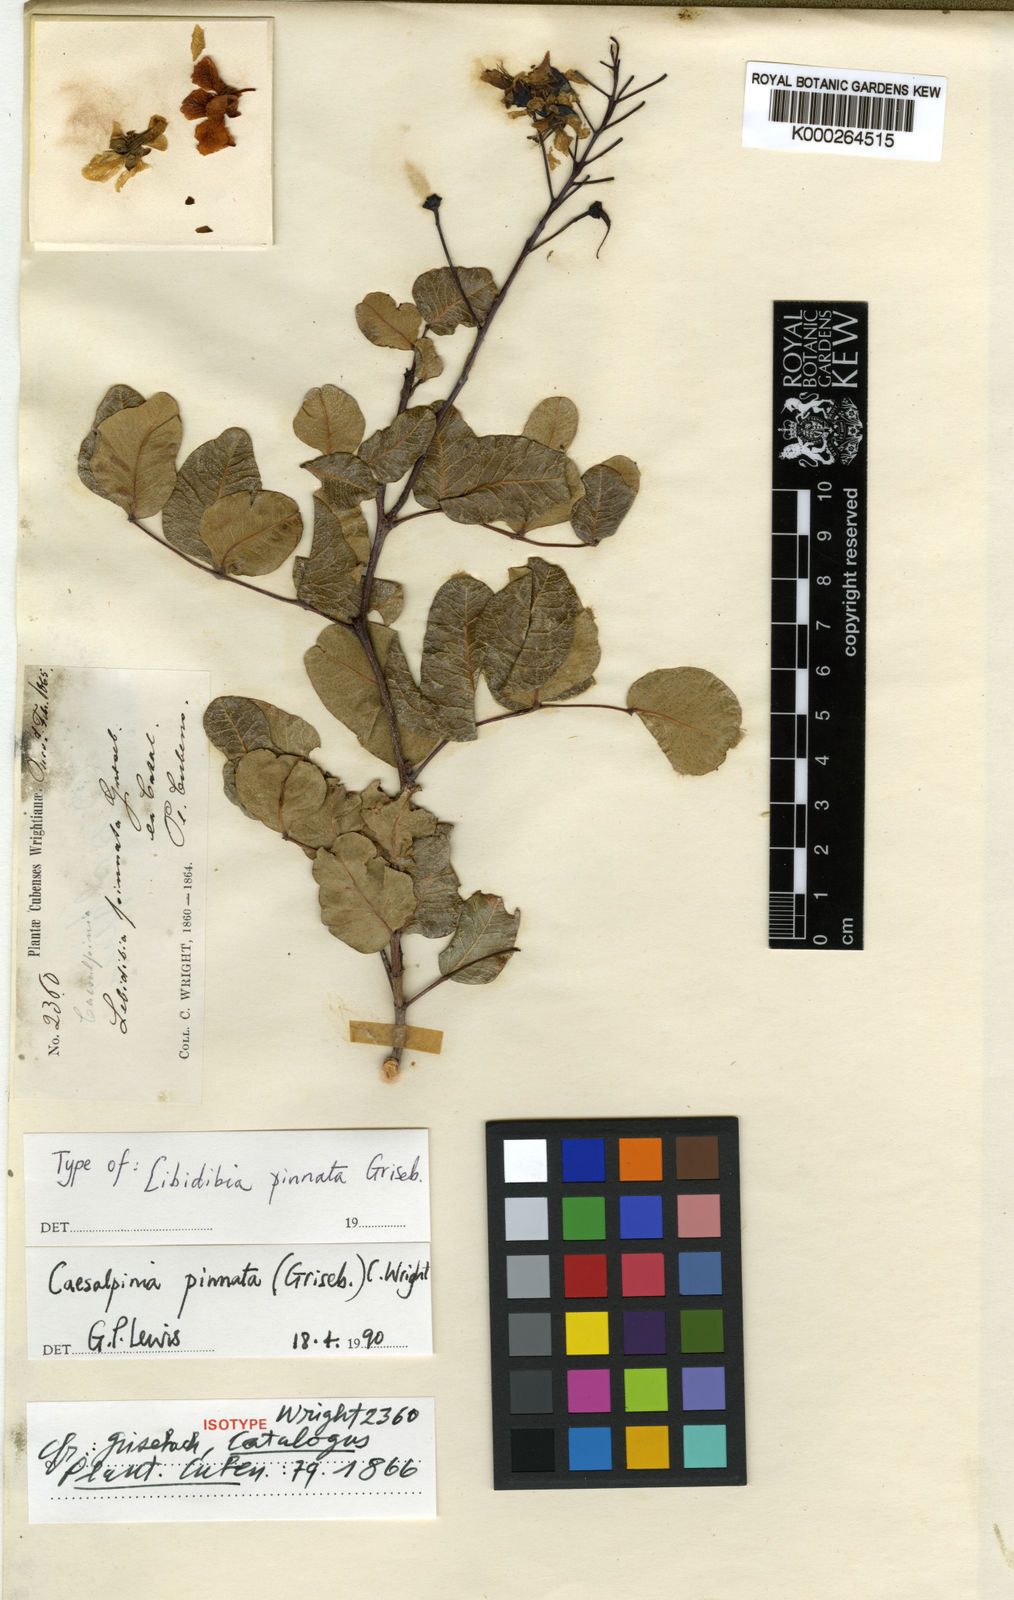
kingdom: Plantae
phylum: Tracheophyta
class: Magnoliopsida
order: Fabales
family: Fabaceae
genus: Cenostigma
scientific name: Cenostigma pinnatum
